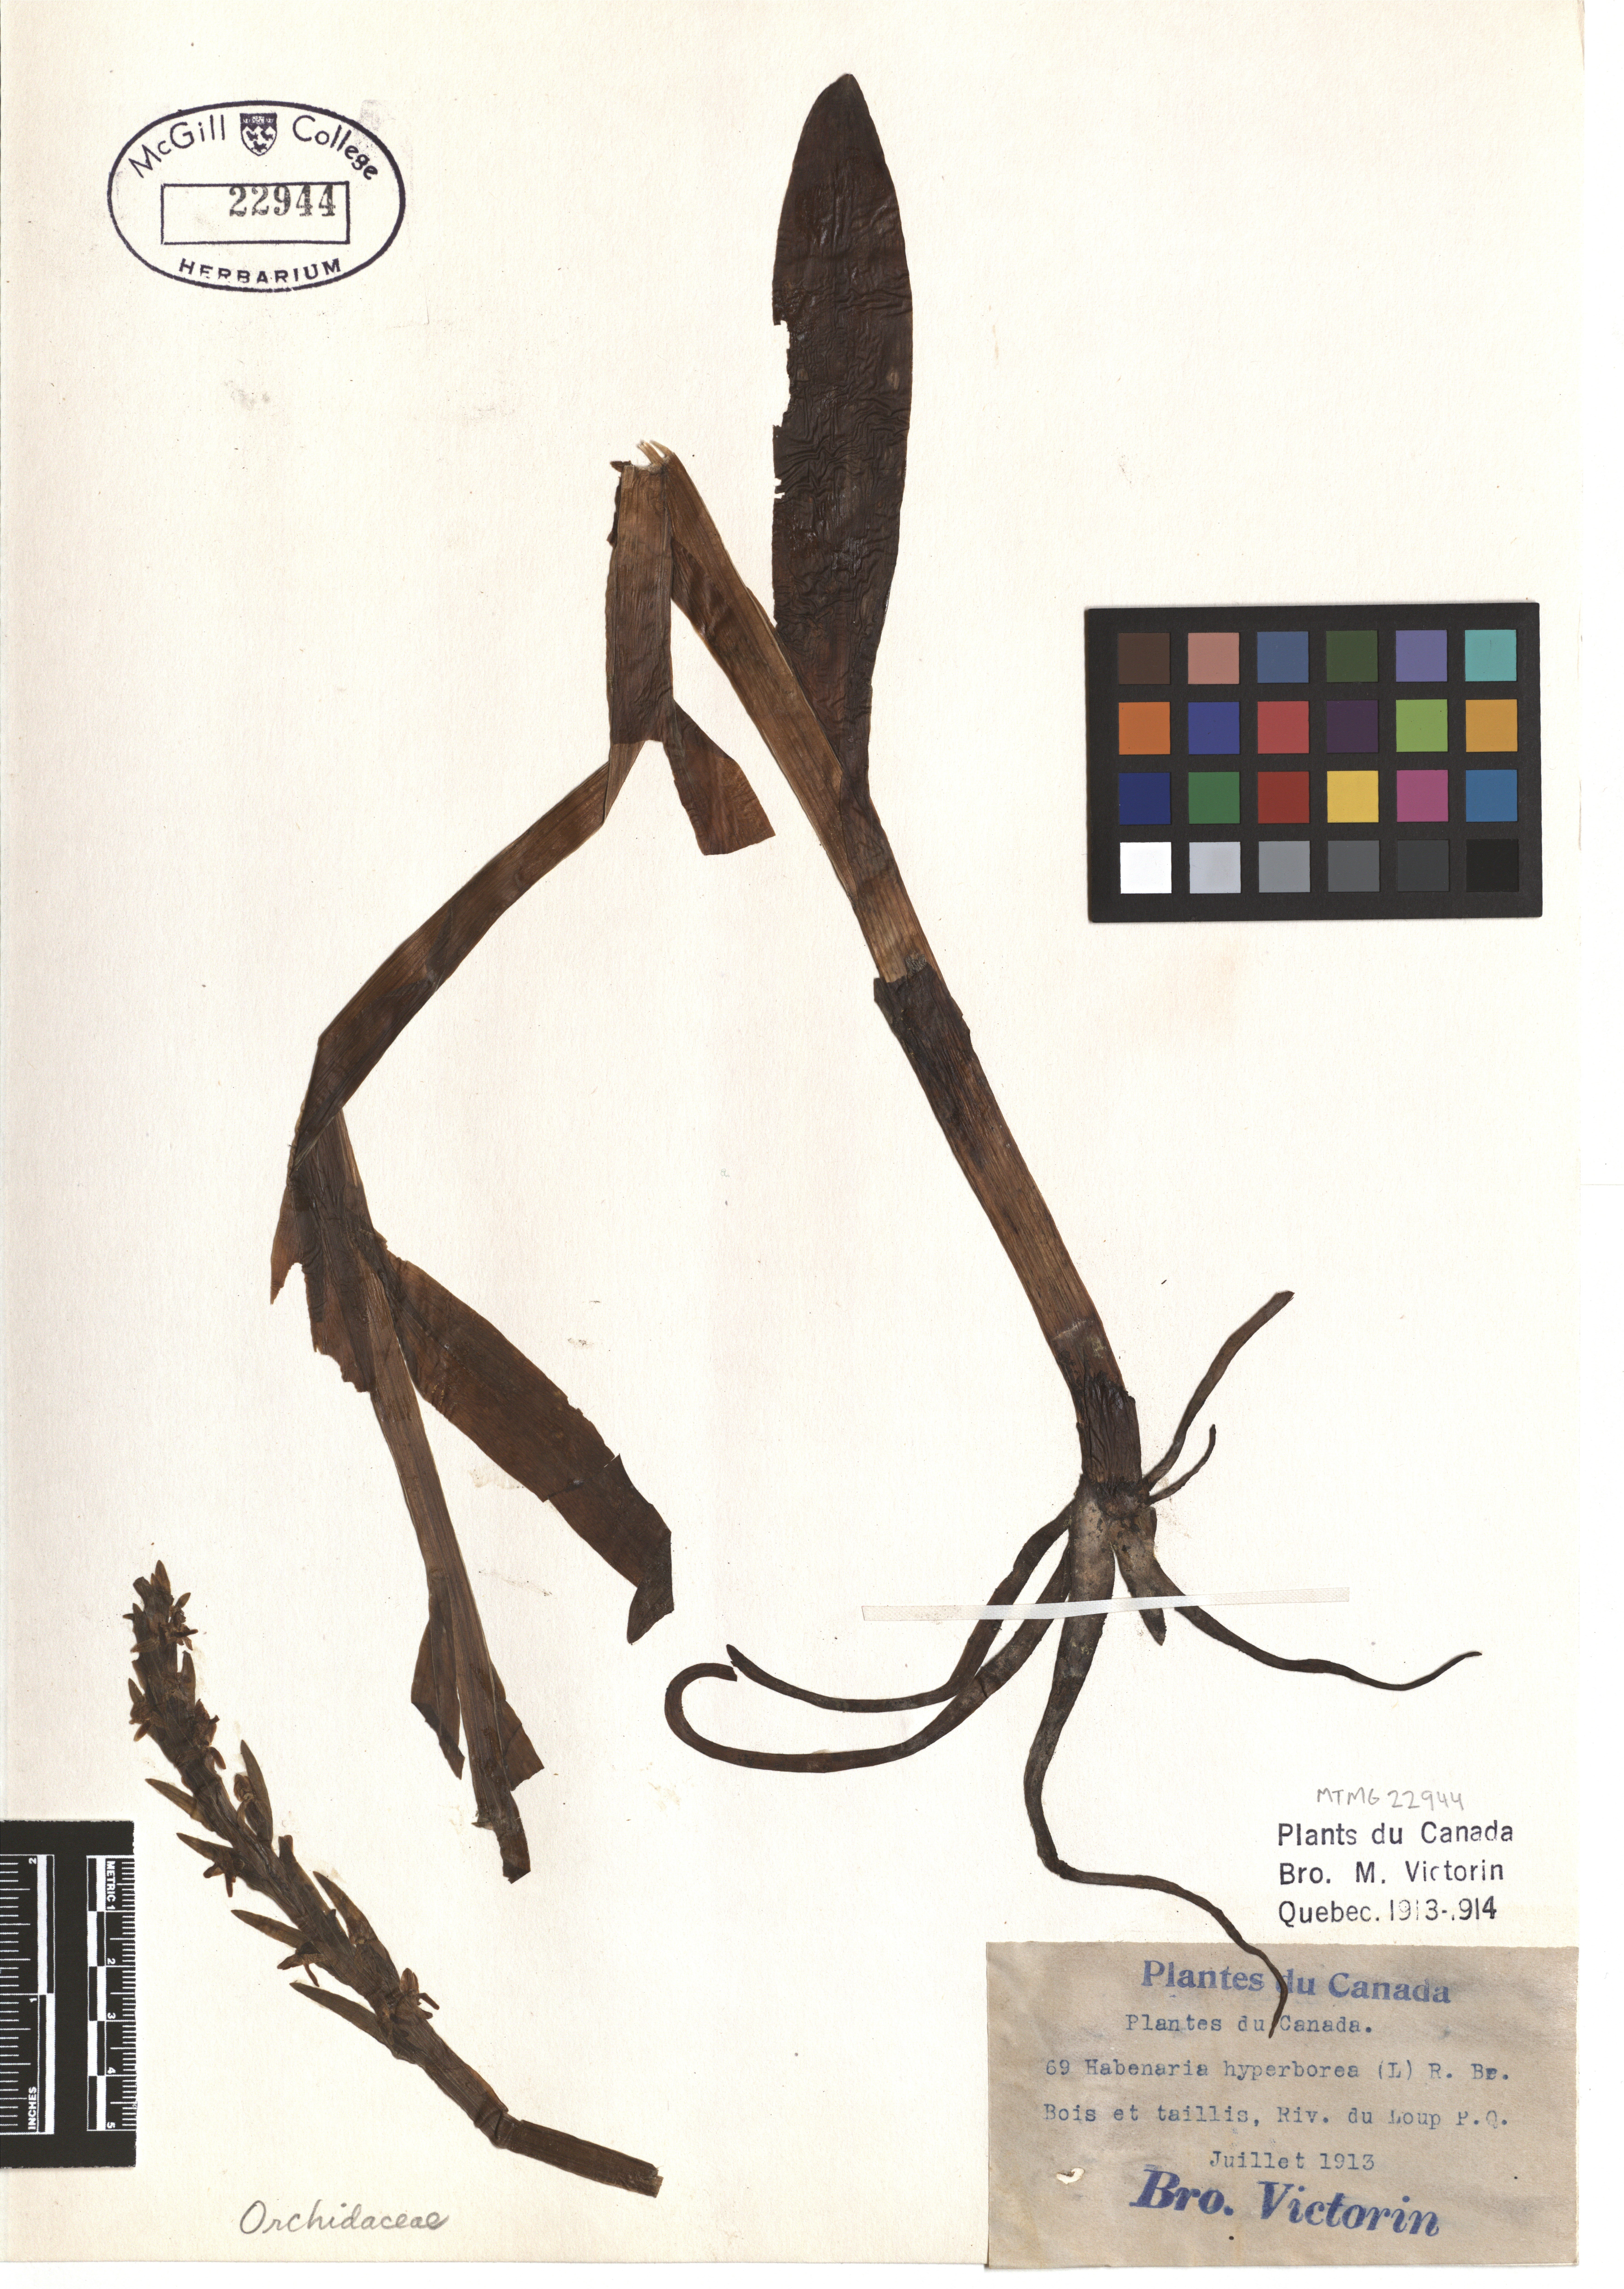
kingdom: Plantae
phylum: Tracheophyta
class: Liliopsida
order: Asparagales
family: Orchidaceae
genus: Platanthera
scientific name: Platanthera hyperborea
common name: Northern green orchid
